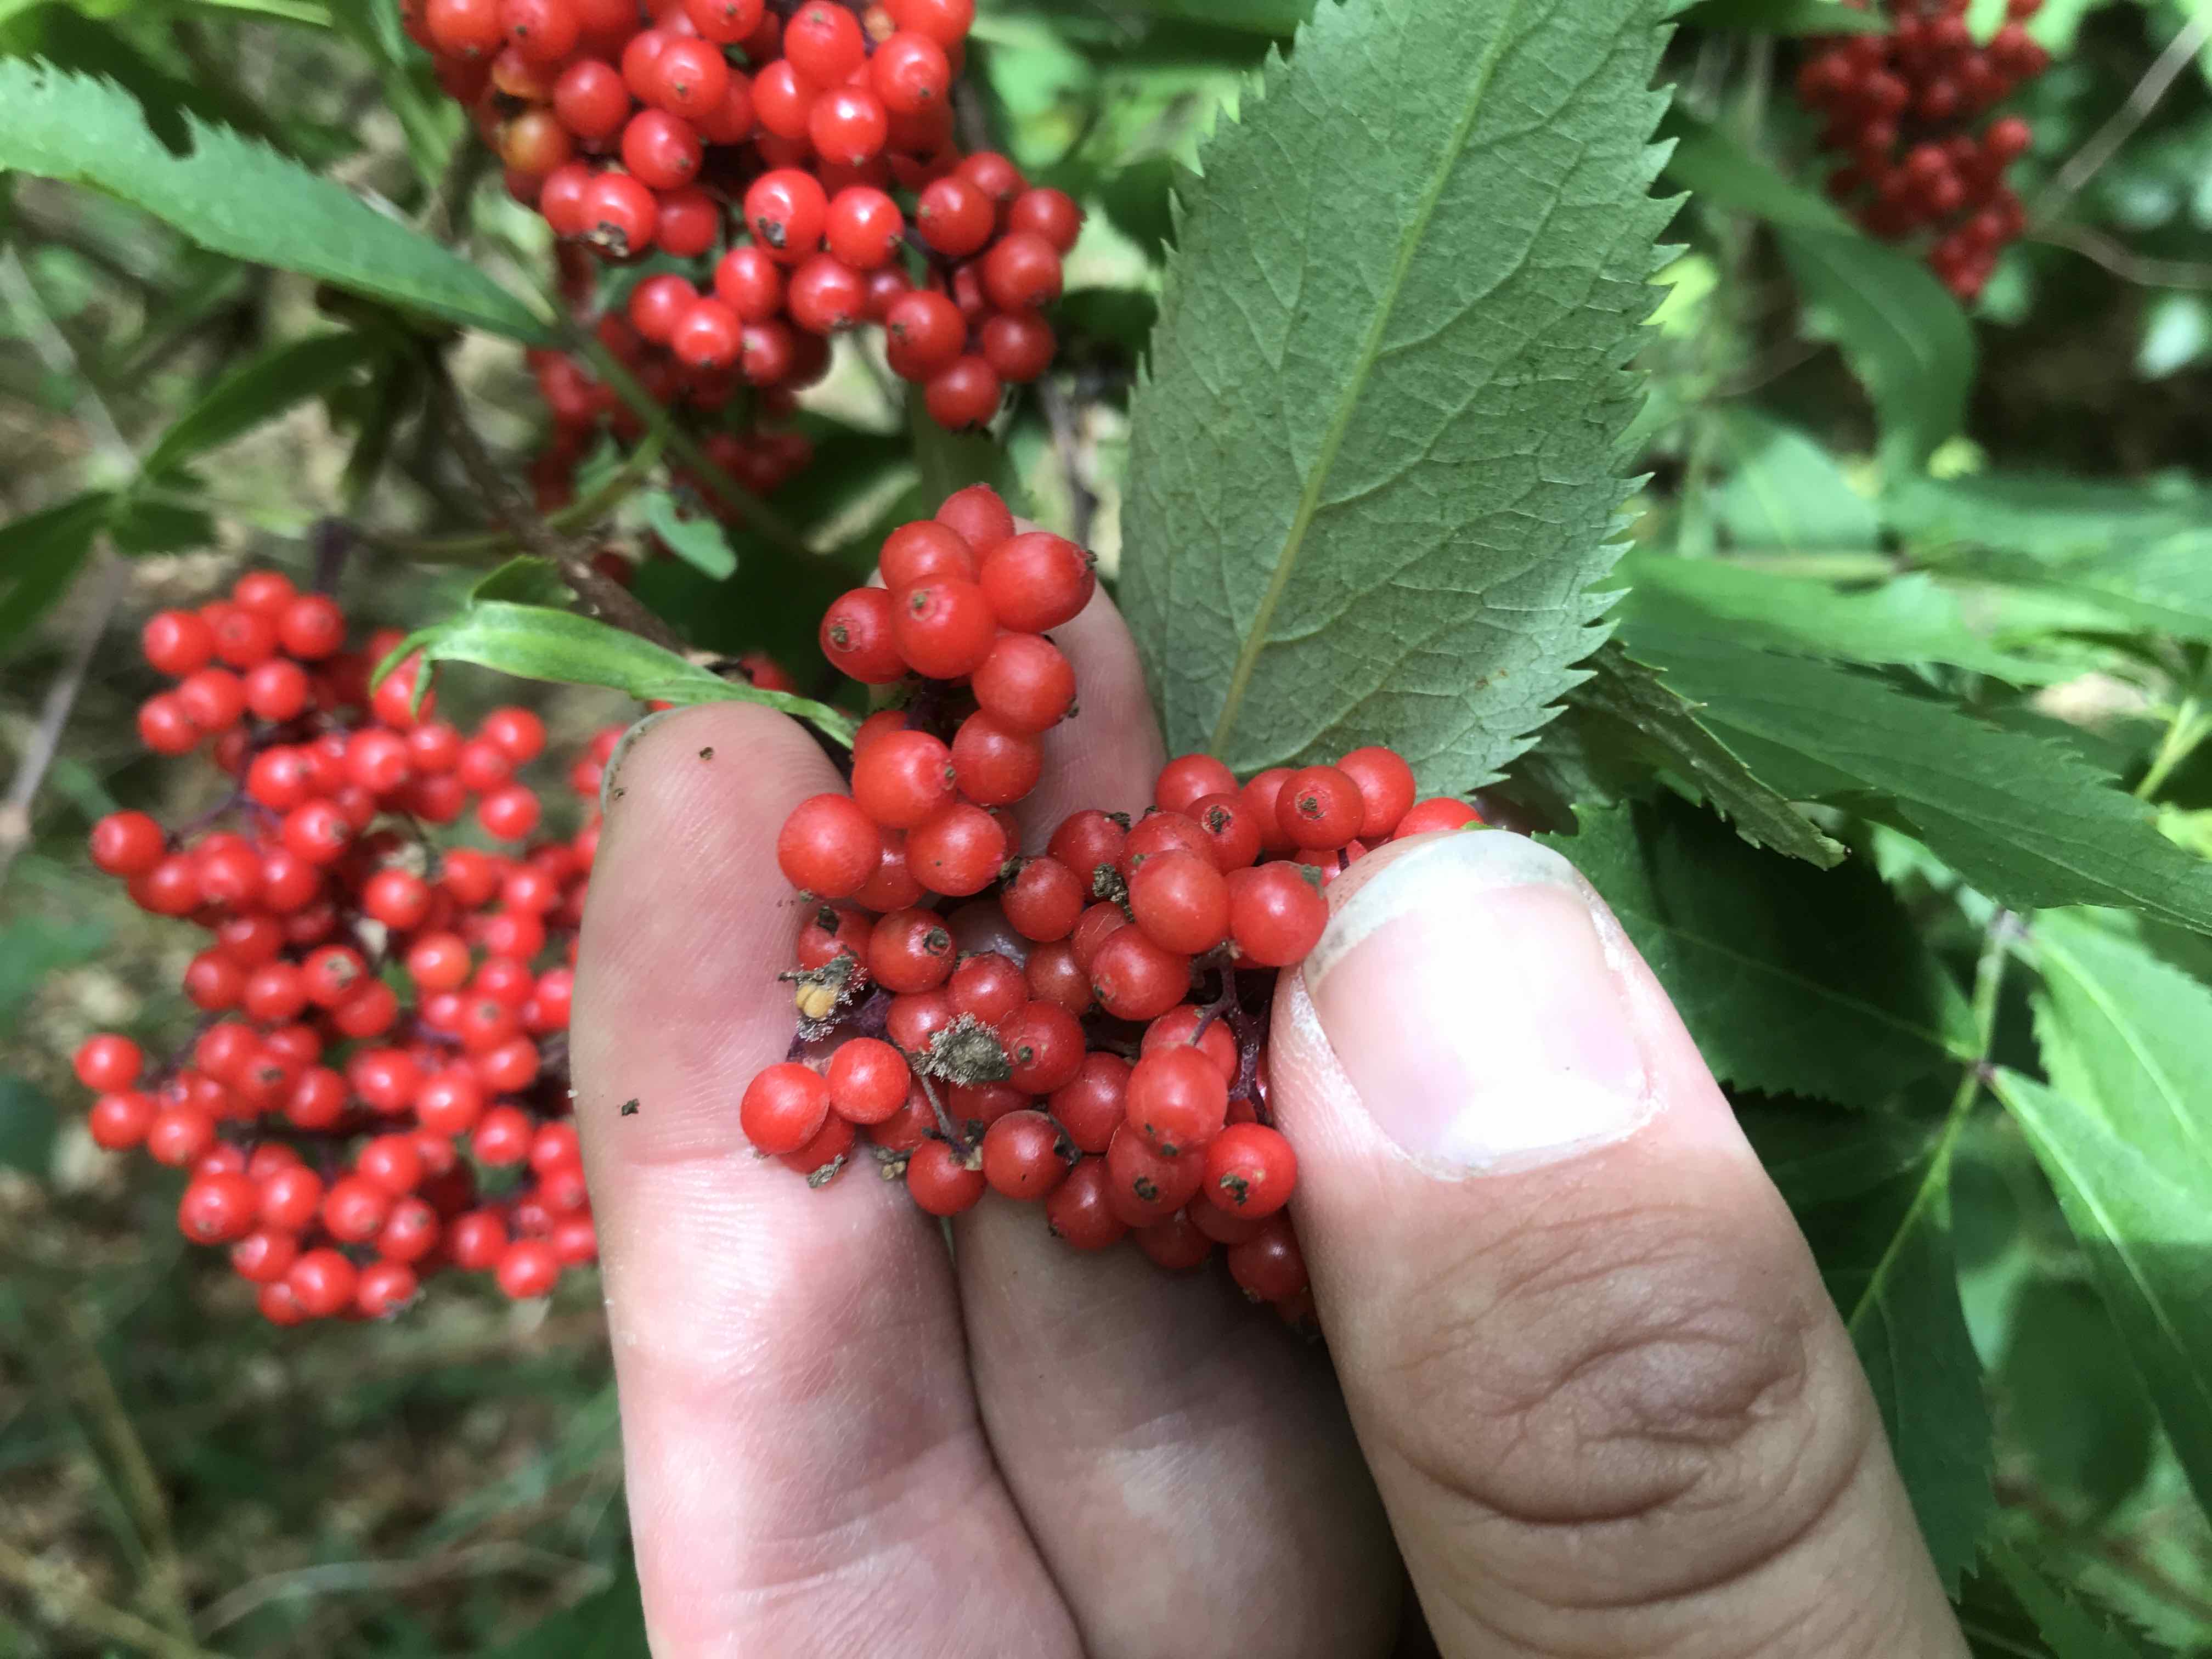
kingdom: Fungi
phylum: Ascomycota
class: Leotiomycetes
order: Helotiales
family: Sclerotiniaceae
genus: Botrytis
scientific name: Botrytis cinerea
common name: Grey mould
